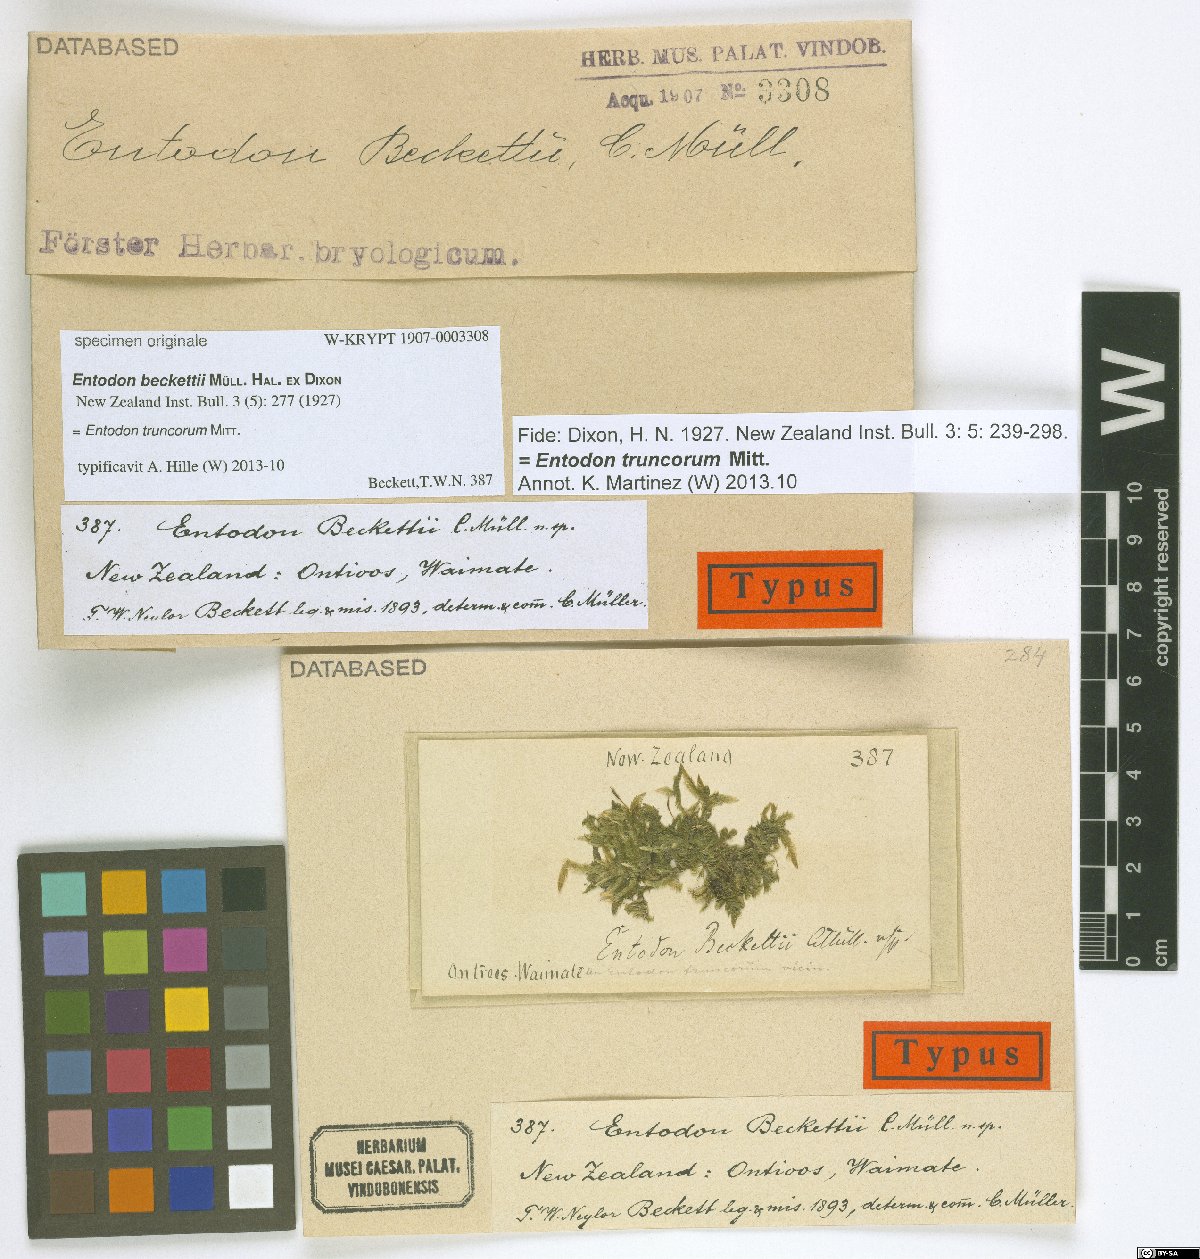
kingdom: Plantae
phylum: Bryophyta
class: Bryopsida
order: Hypnales
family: Entodontaceae
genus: Entodon
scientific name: Entodon
